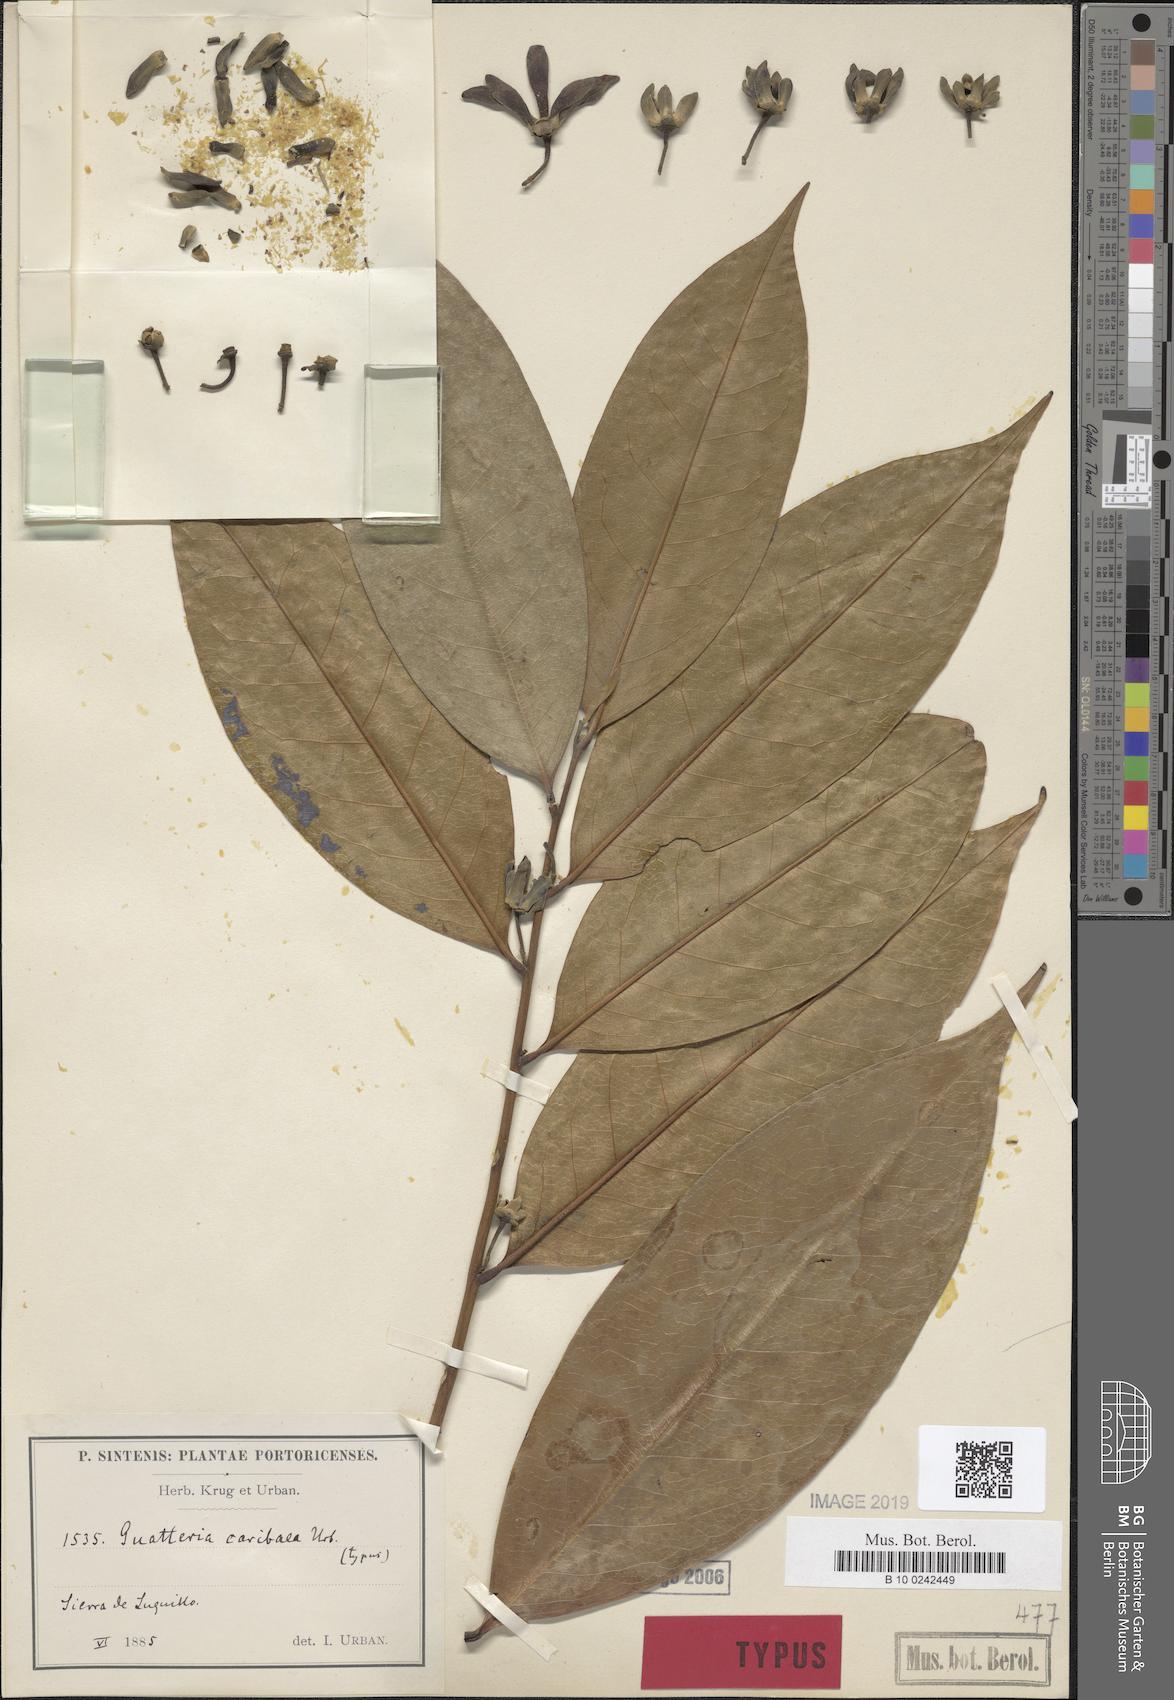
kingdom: Plantae
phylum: Tracheophyta
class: Magnoliopsida
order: Magnoliales
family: Annonaceae
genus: Guatteria
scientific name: Guatteria caribaea
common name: Wild soursop
